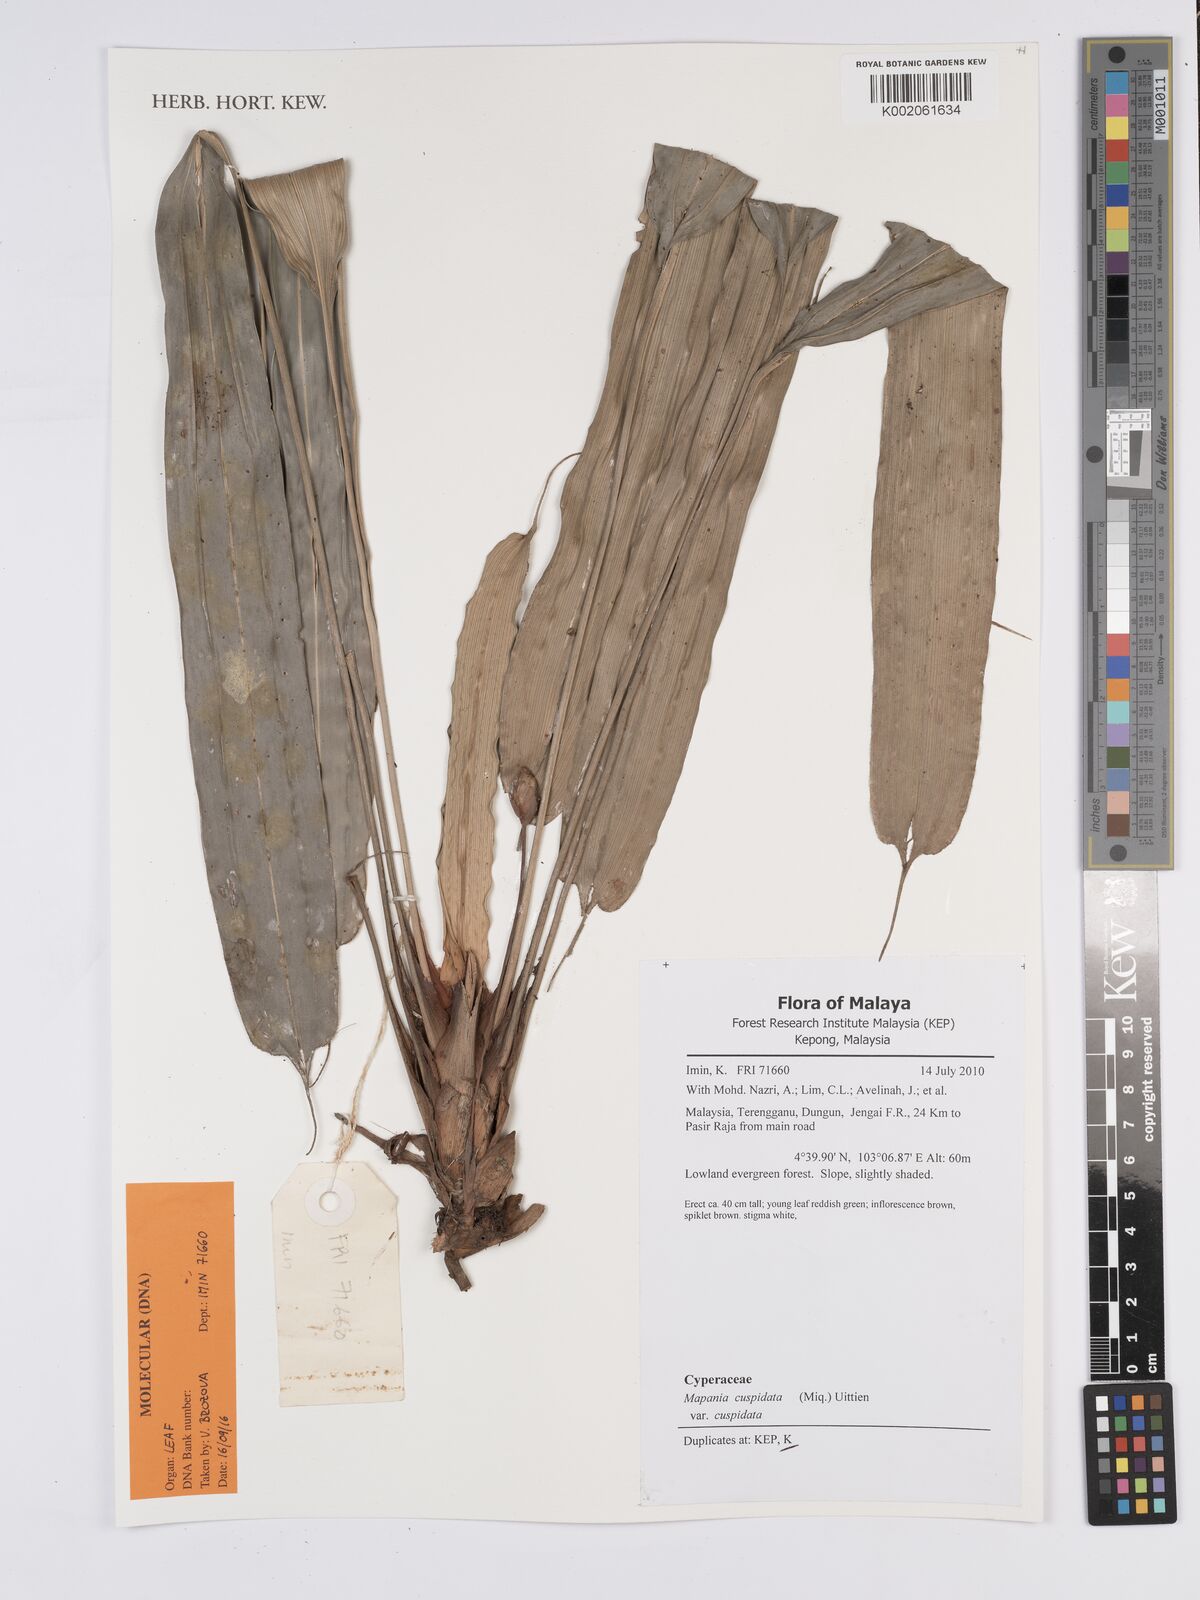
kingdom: Plantae
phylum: Tracheophyta
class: Liliopsida
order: Poales
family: Cyperaceae
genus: Mapania
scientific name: Mapania cuspidata
